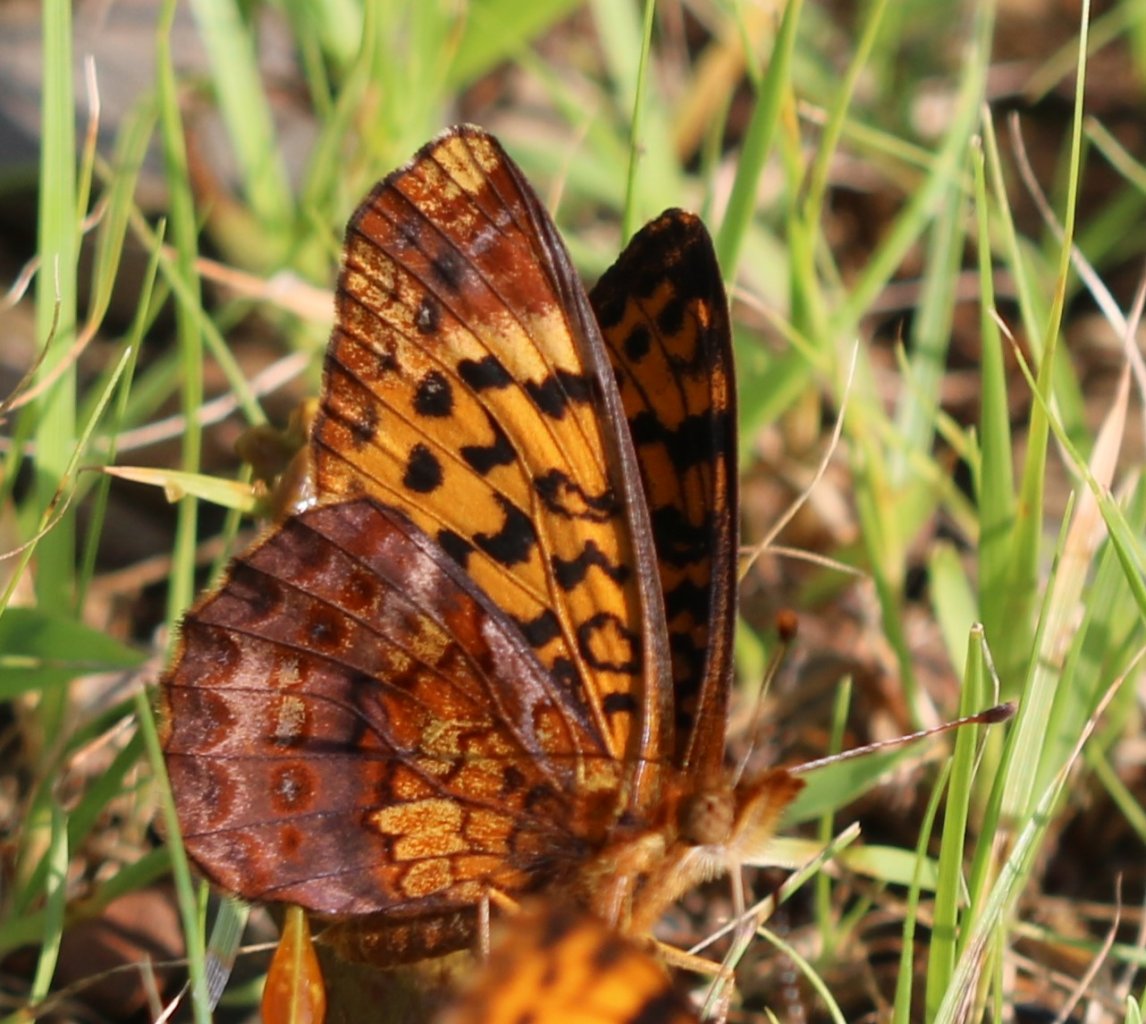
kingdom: Animalia
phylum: Arthropoda
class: Insecta
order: Lepidoptera
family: Nymphalidae
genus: Clossiana
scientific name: Clossiana toddi
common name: Meadow Fritillary
